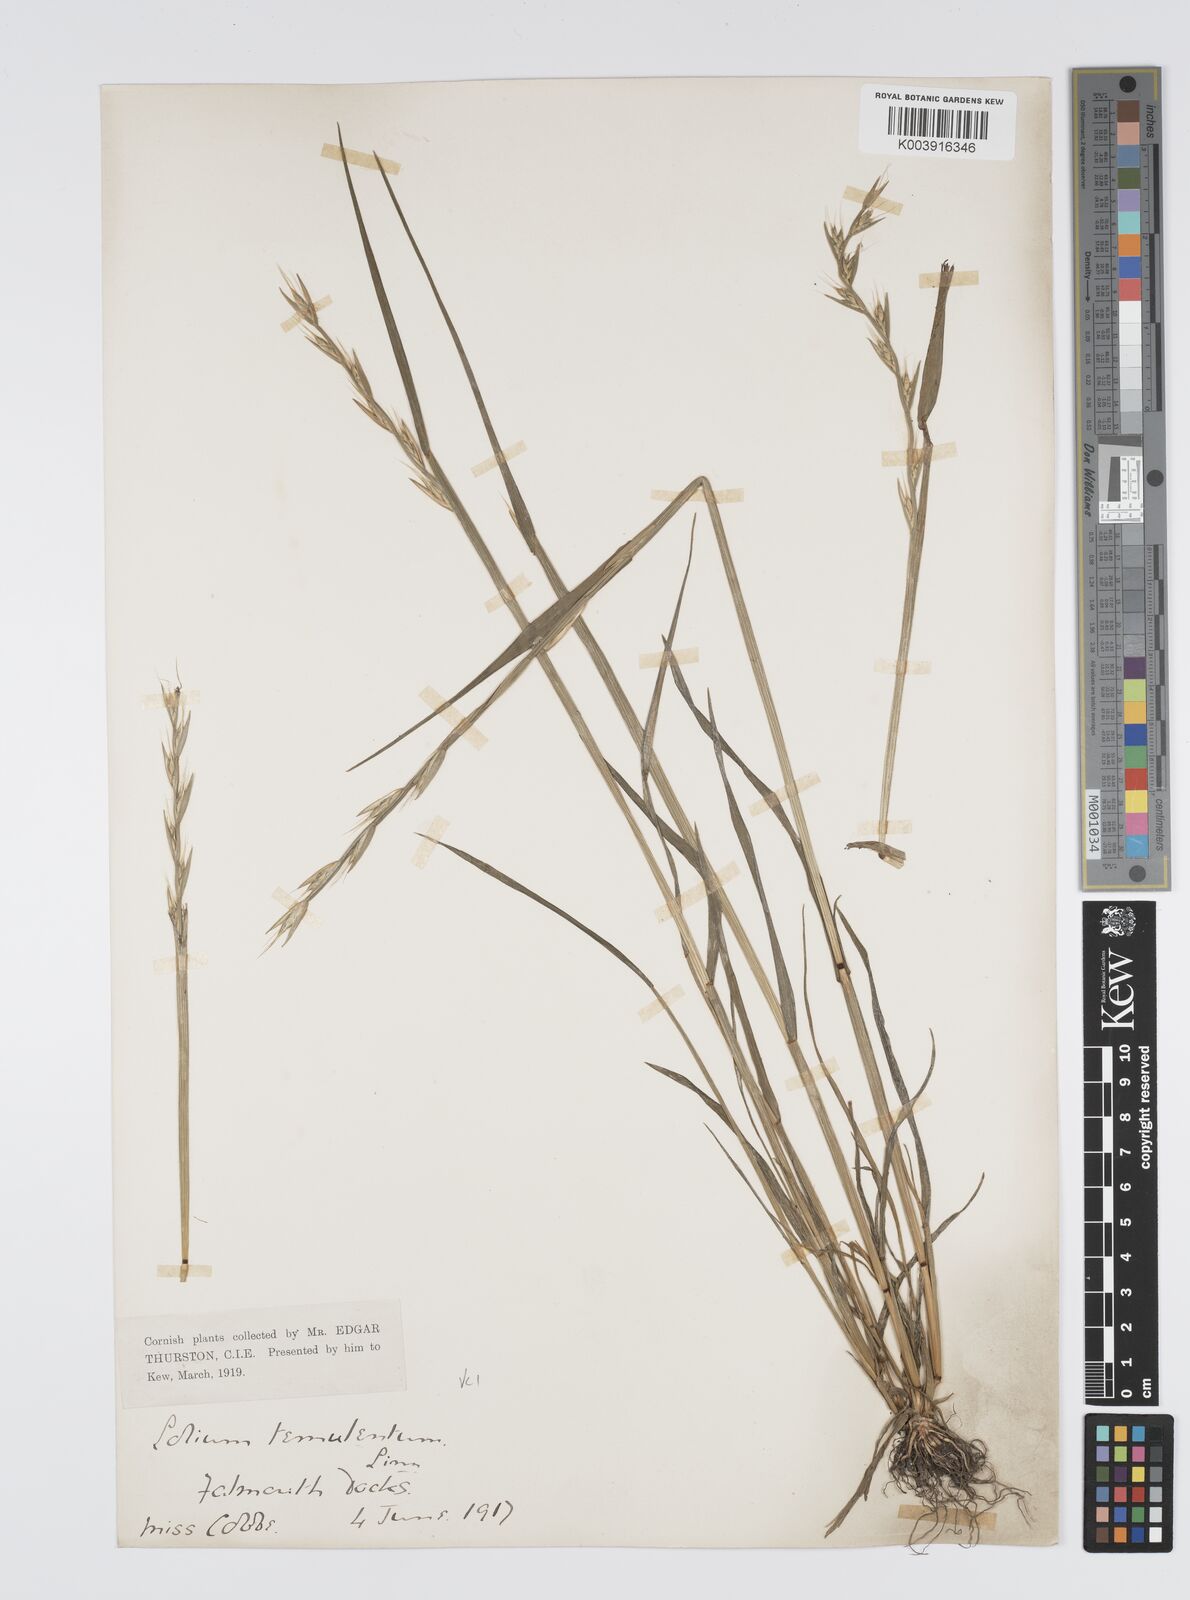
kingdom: Plantae
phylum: Tracheophyta
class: Liliopsida
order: Poales
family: Poaceae
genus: Lolium
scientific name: Lolium temulentum
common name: Darnel
